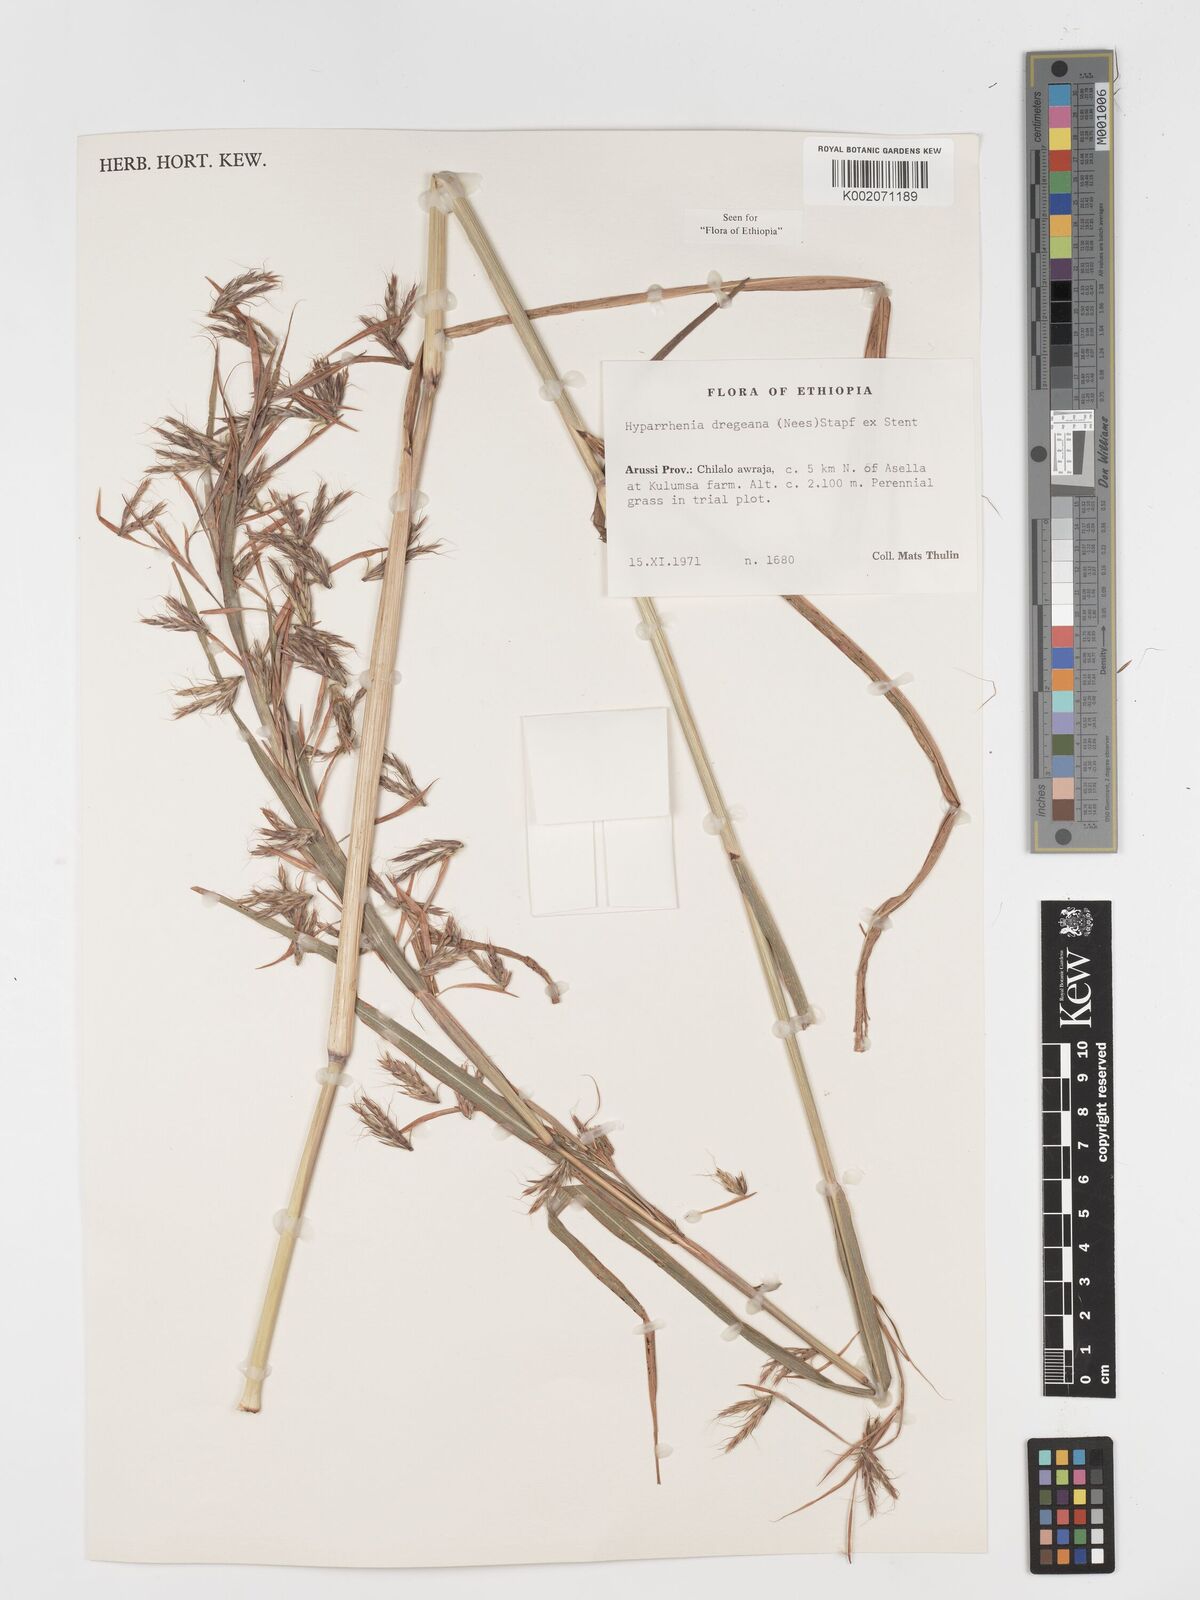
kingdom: Plantae
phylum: Tracheophyta
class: Liliopsida
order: Poales
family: Poaceae
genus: Hyparrhenia
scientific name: Hyparrhenia dregeana
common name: Silky thatching grass
